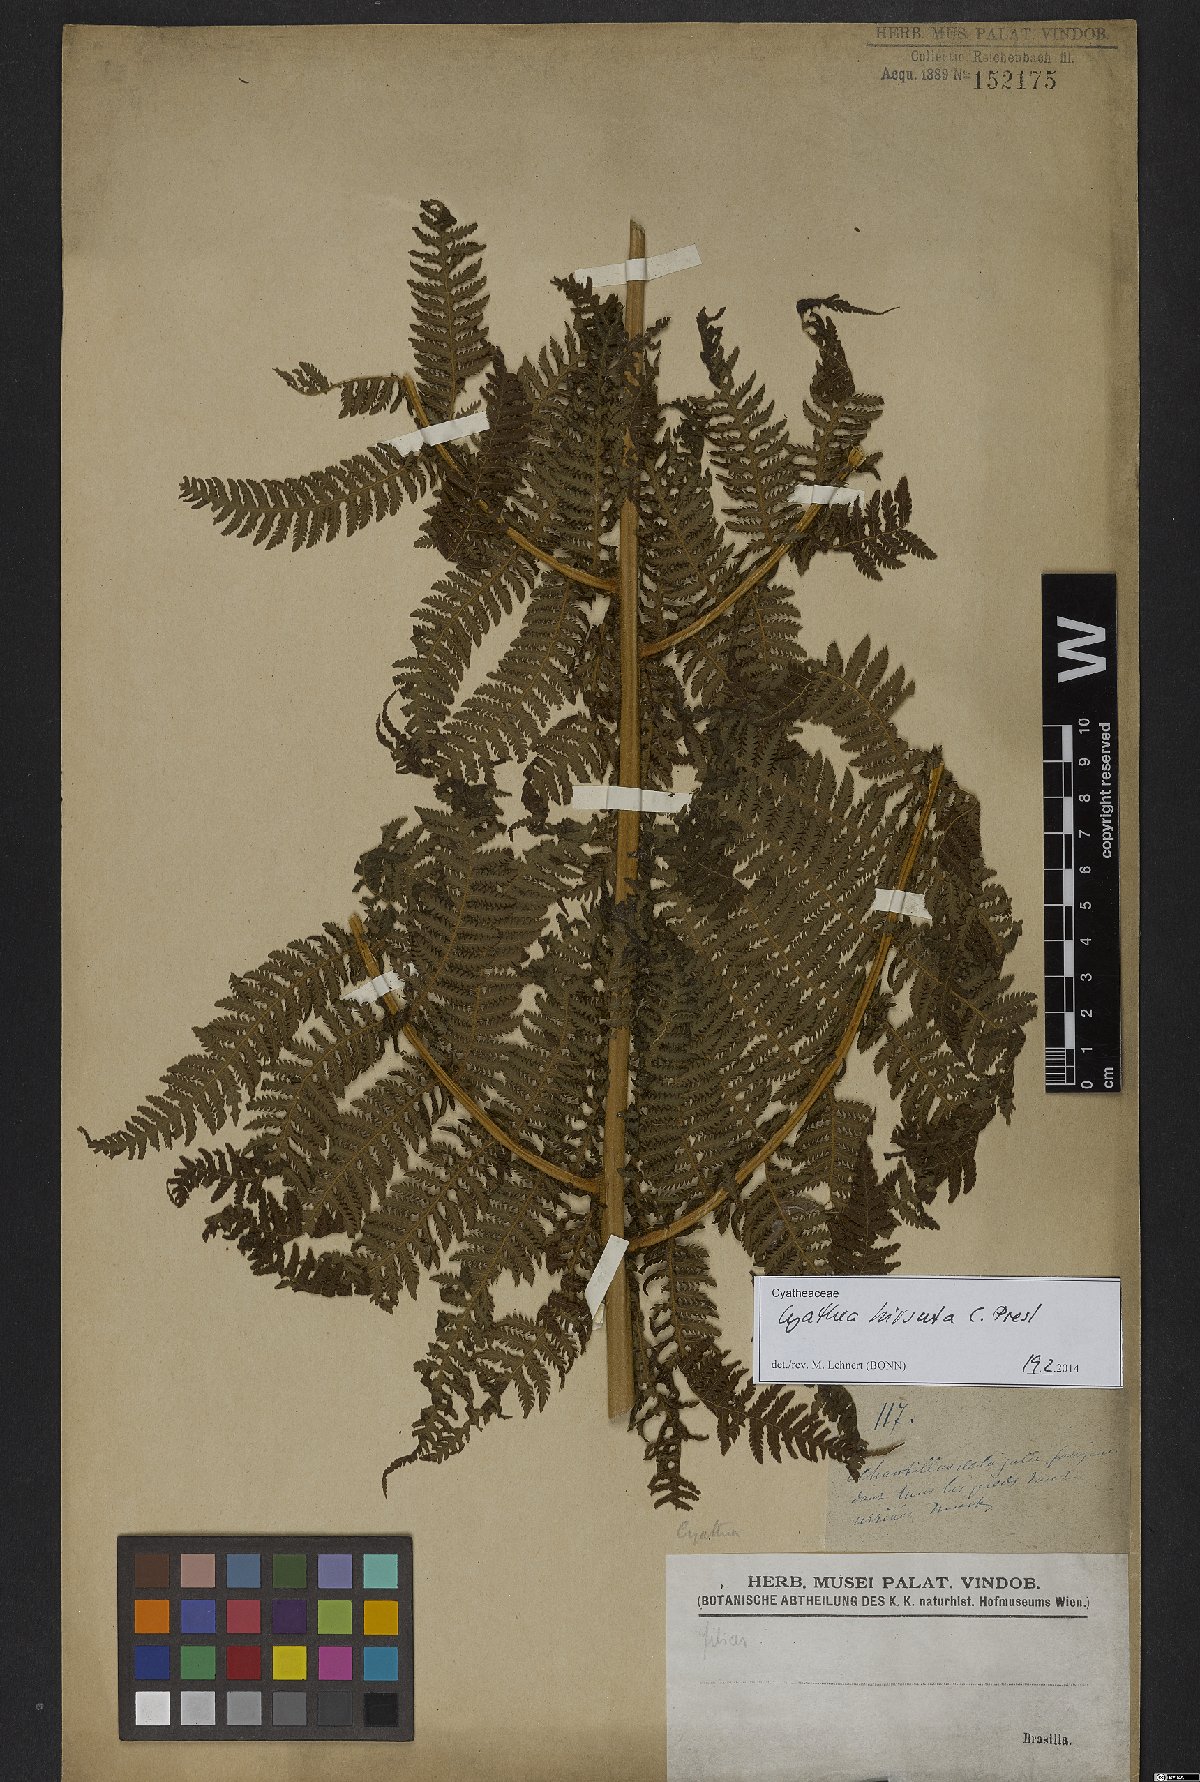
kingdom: Plantae
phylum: Tracheophyta
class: Polypodiopsida
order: Cyatheales
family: Cyatheaceae
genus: Cyathea
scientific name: Cyathea hirsuta
